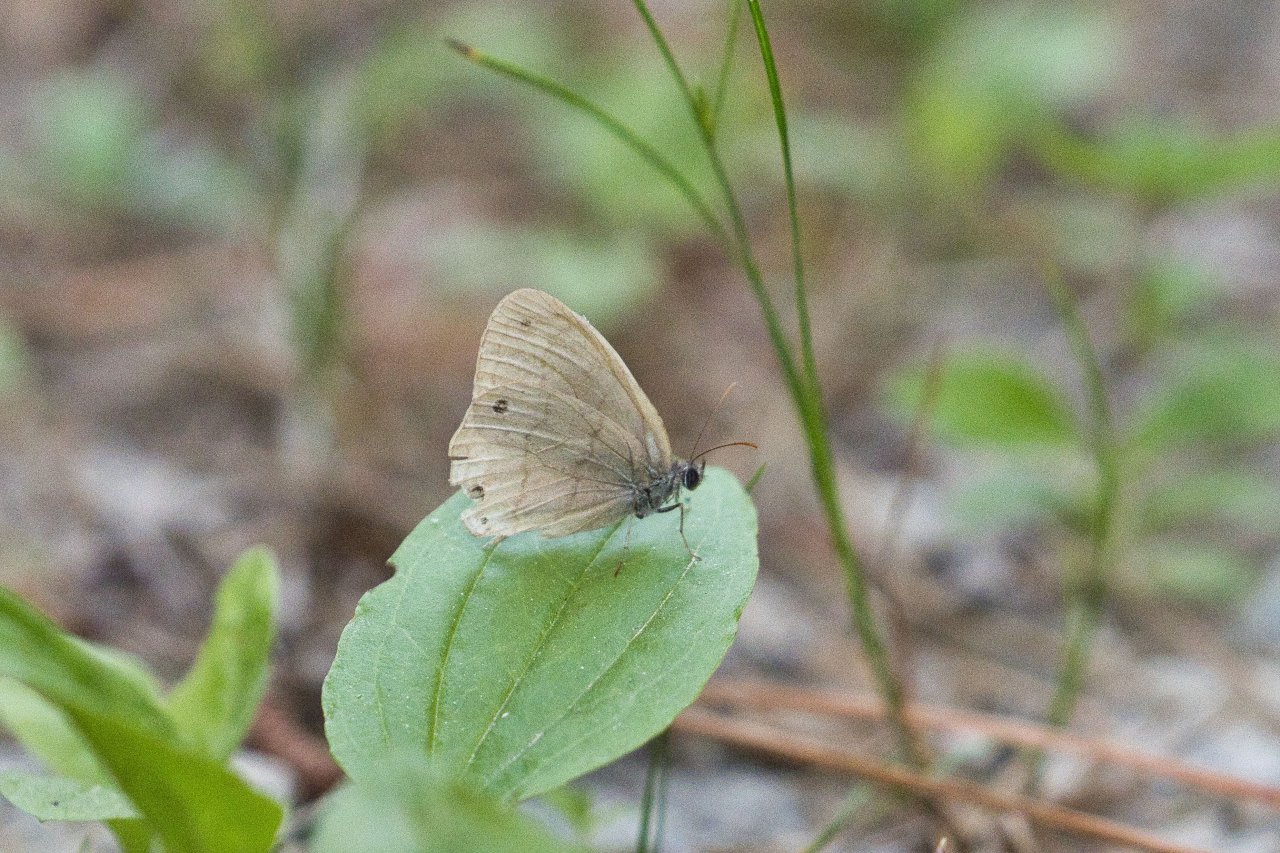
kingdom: Animalia
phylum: Arthropoda
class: Insecta
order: Lepidoptera
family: Nymphalidae
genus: Hermeuptychia
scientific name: Hermeuptychia hermes
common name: Carolina Satyr
